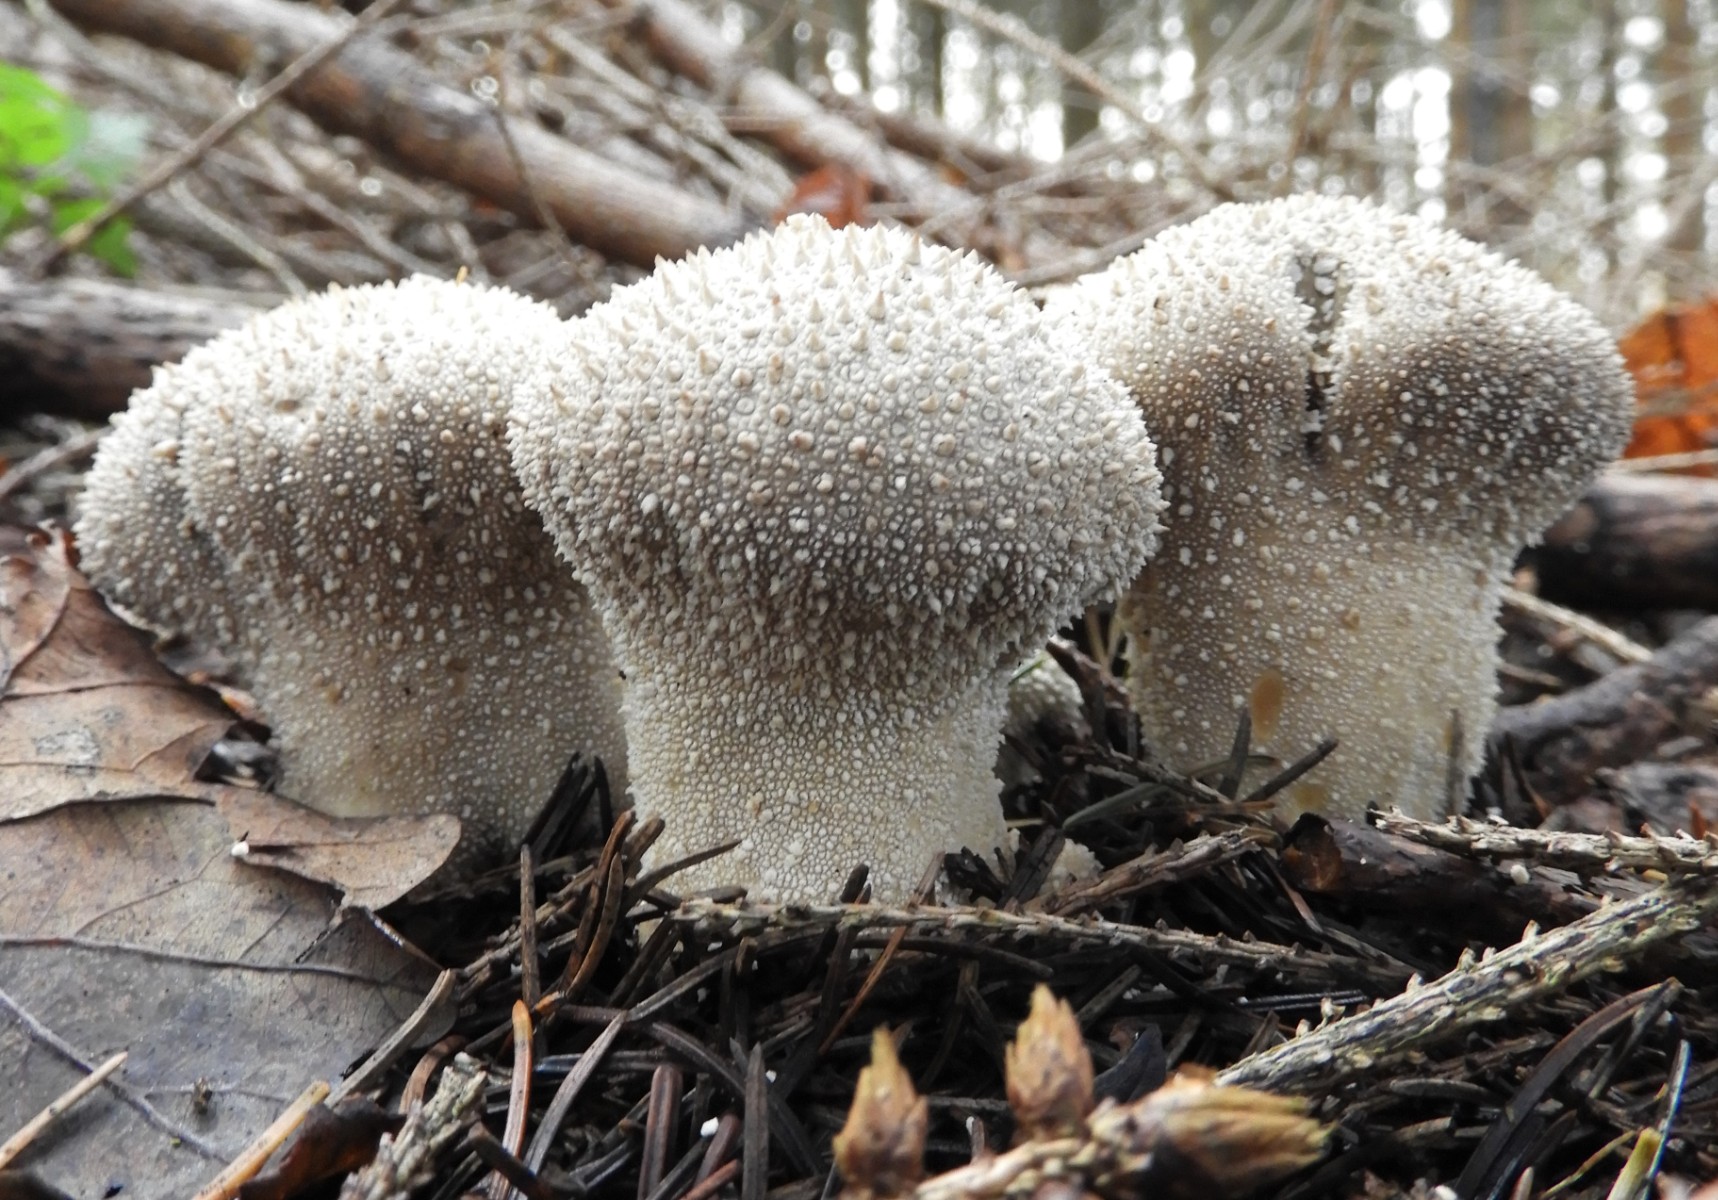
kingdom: Fungi
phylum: Basidiomycota
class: Agaricomycetes
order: Agaricales
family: Lycoperdaceae
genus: Lycoperdon
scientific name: Lycoperdon perlatum
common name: krystal-støvbold
